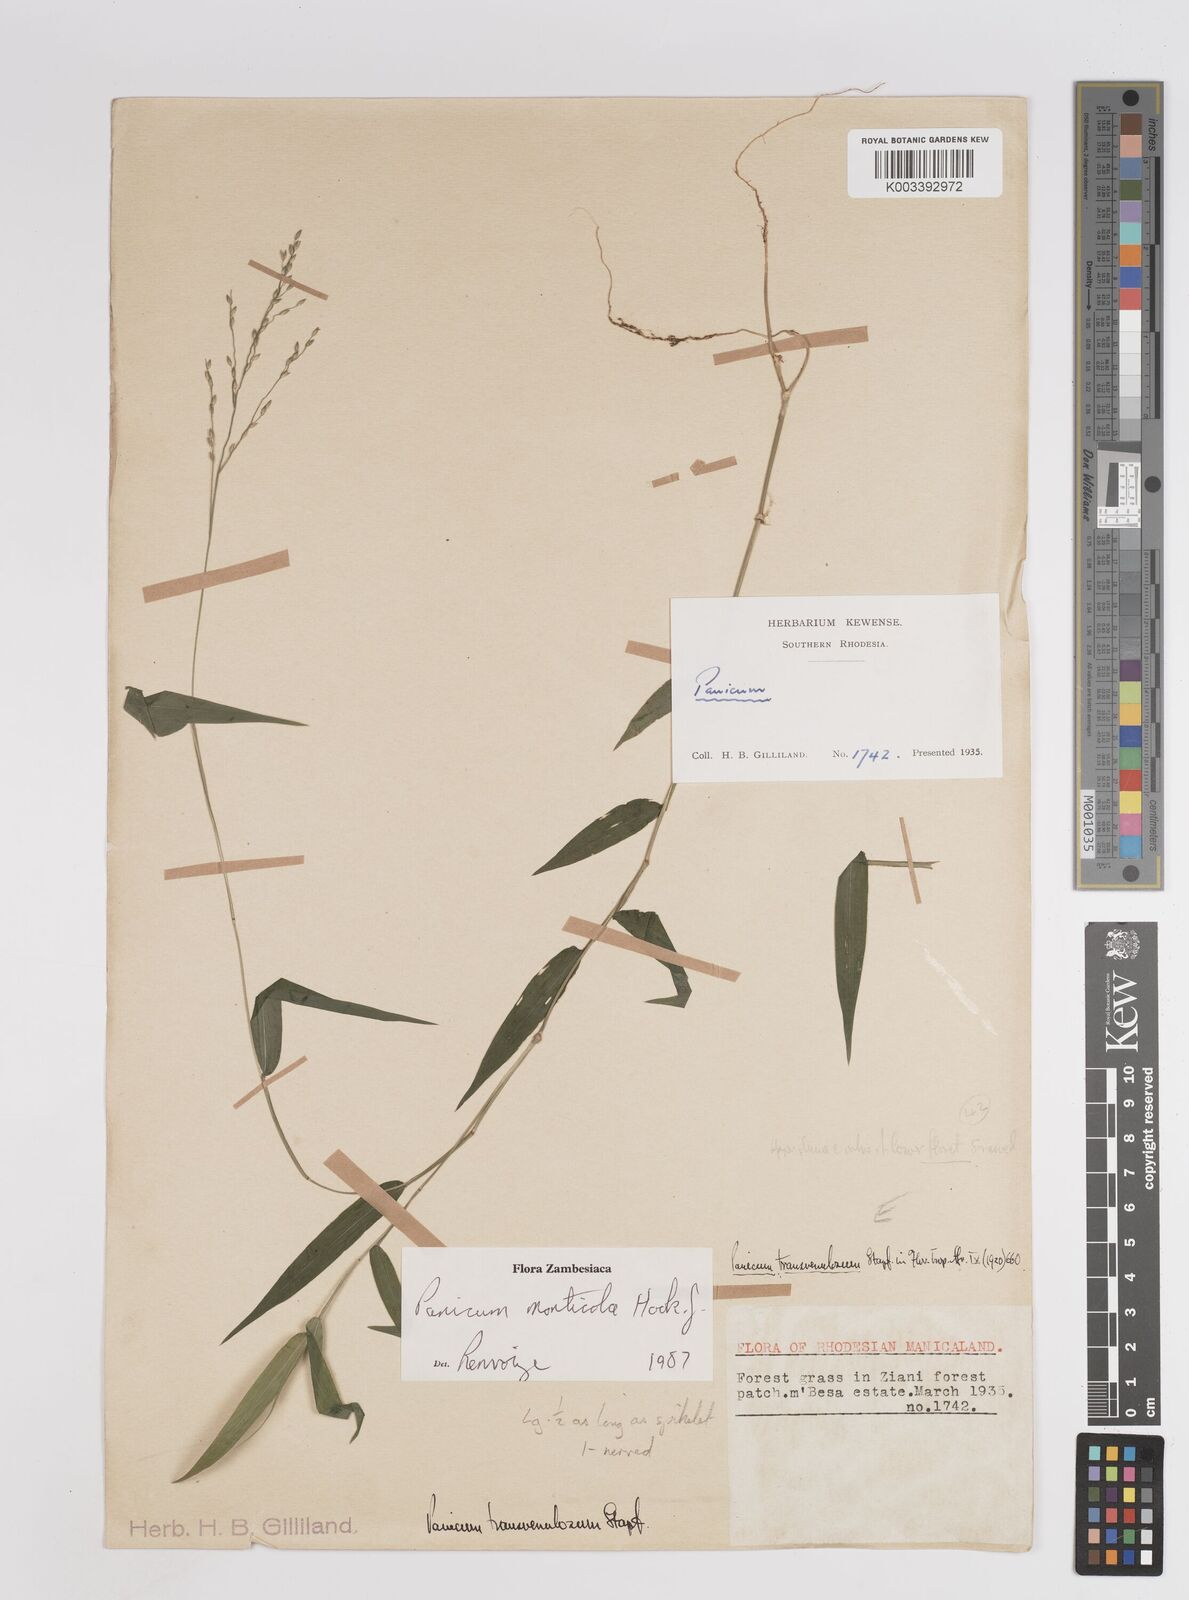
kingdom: Plantae
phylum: Tracheophyta
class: Liliopsida
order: Poales
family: Poaceae
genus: Panicum
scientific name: Panicum monticola
